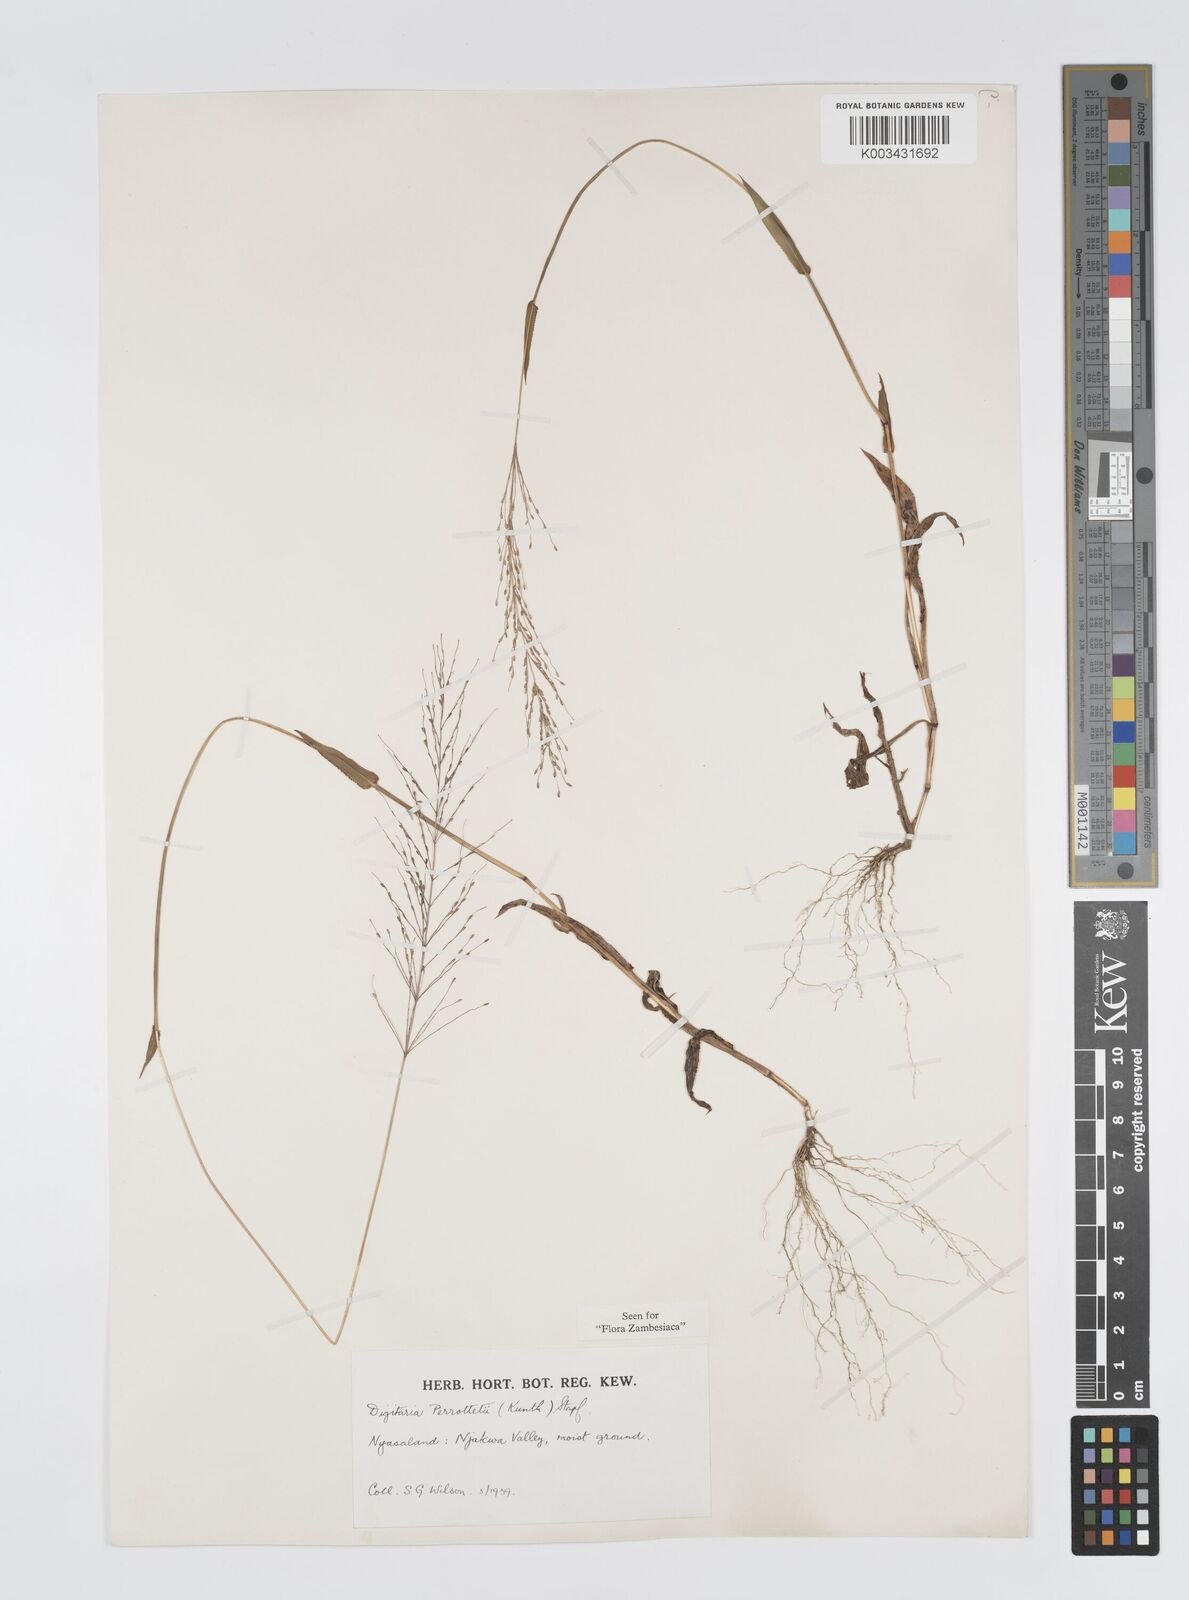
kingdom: Plantae
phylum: Tracheophyta
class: Liliopsida
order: Poales
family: Poaceae
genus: Digitaria
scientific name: Digitaria perrottetii
